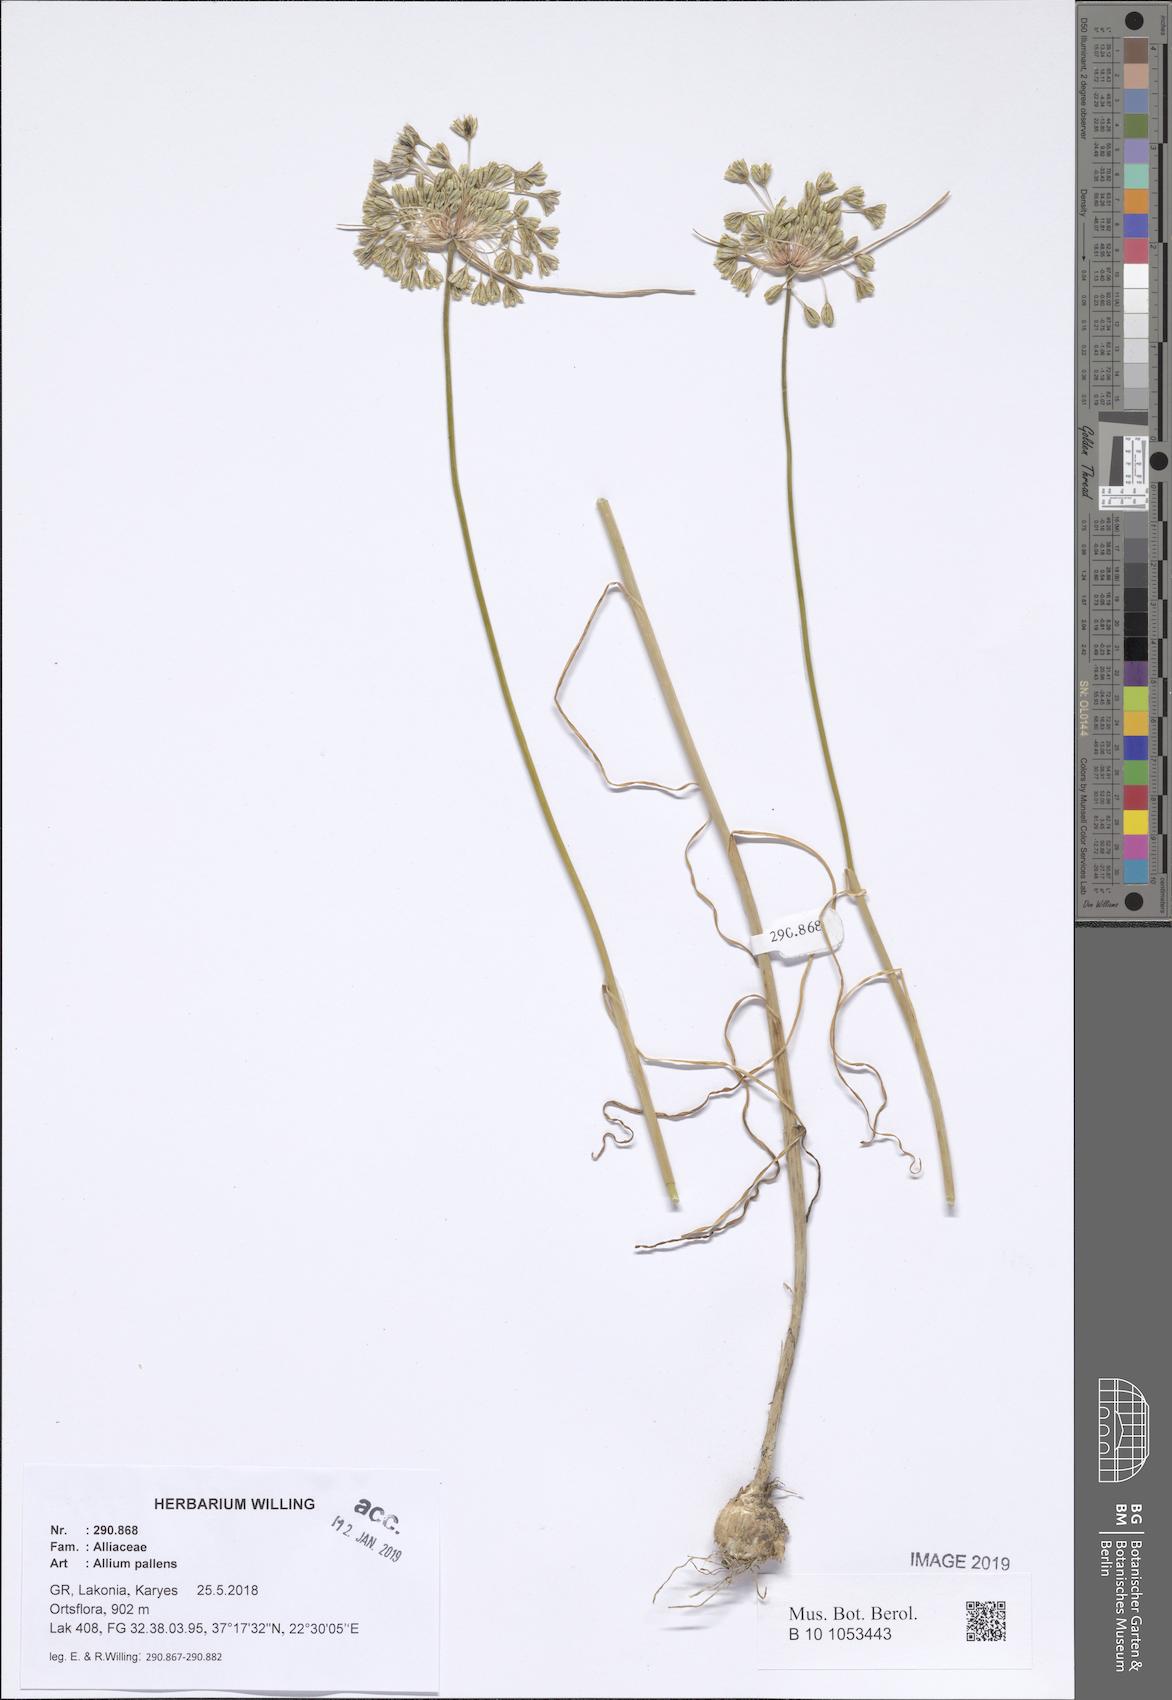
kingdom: Plantae
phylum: Tracheophyta
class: Liliopsida
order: Asparagales
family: Amaryllidaceae
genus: Allium
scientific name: Allium pallens
